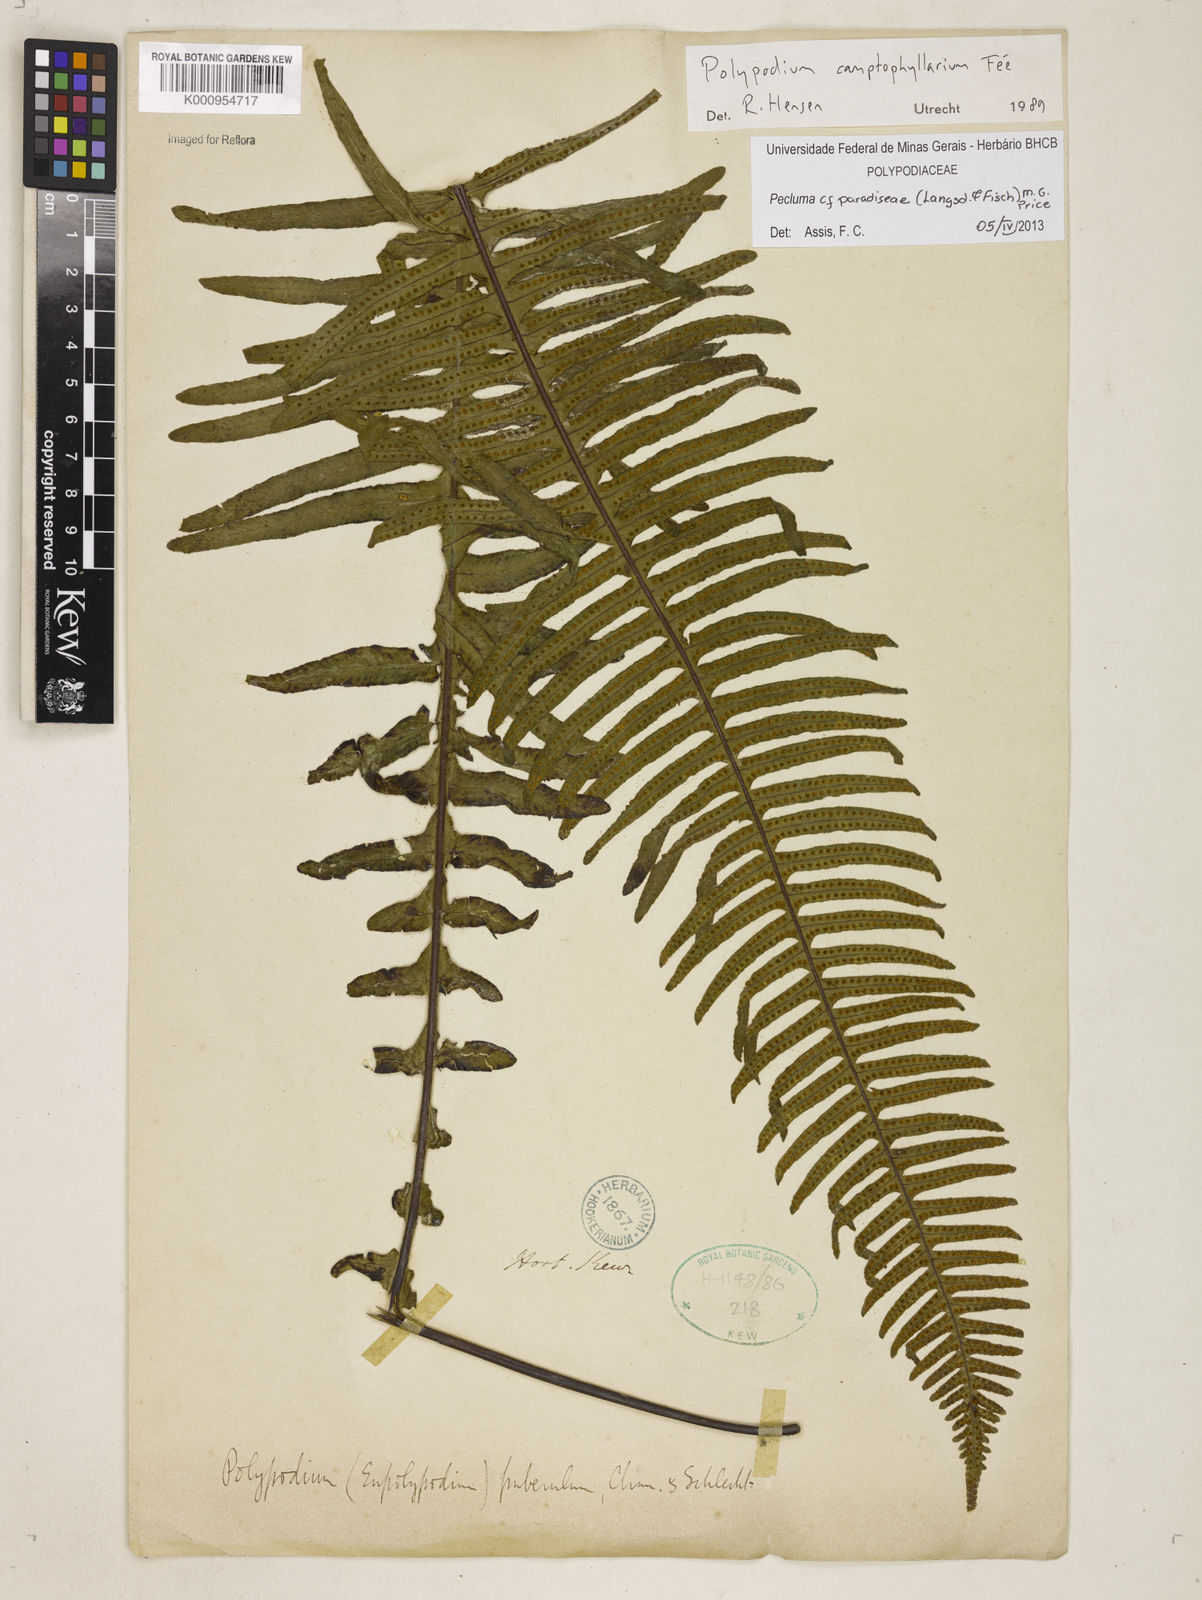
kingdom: Plantae
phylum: Tracheophyta
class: Polypodiopsida
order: Polypodiales
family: Polypodiaceae
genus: Pecluma
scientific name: Pecluma paradiseae
